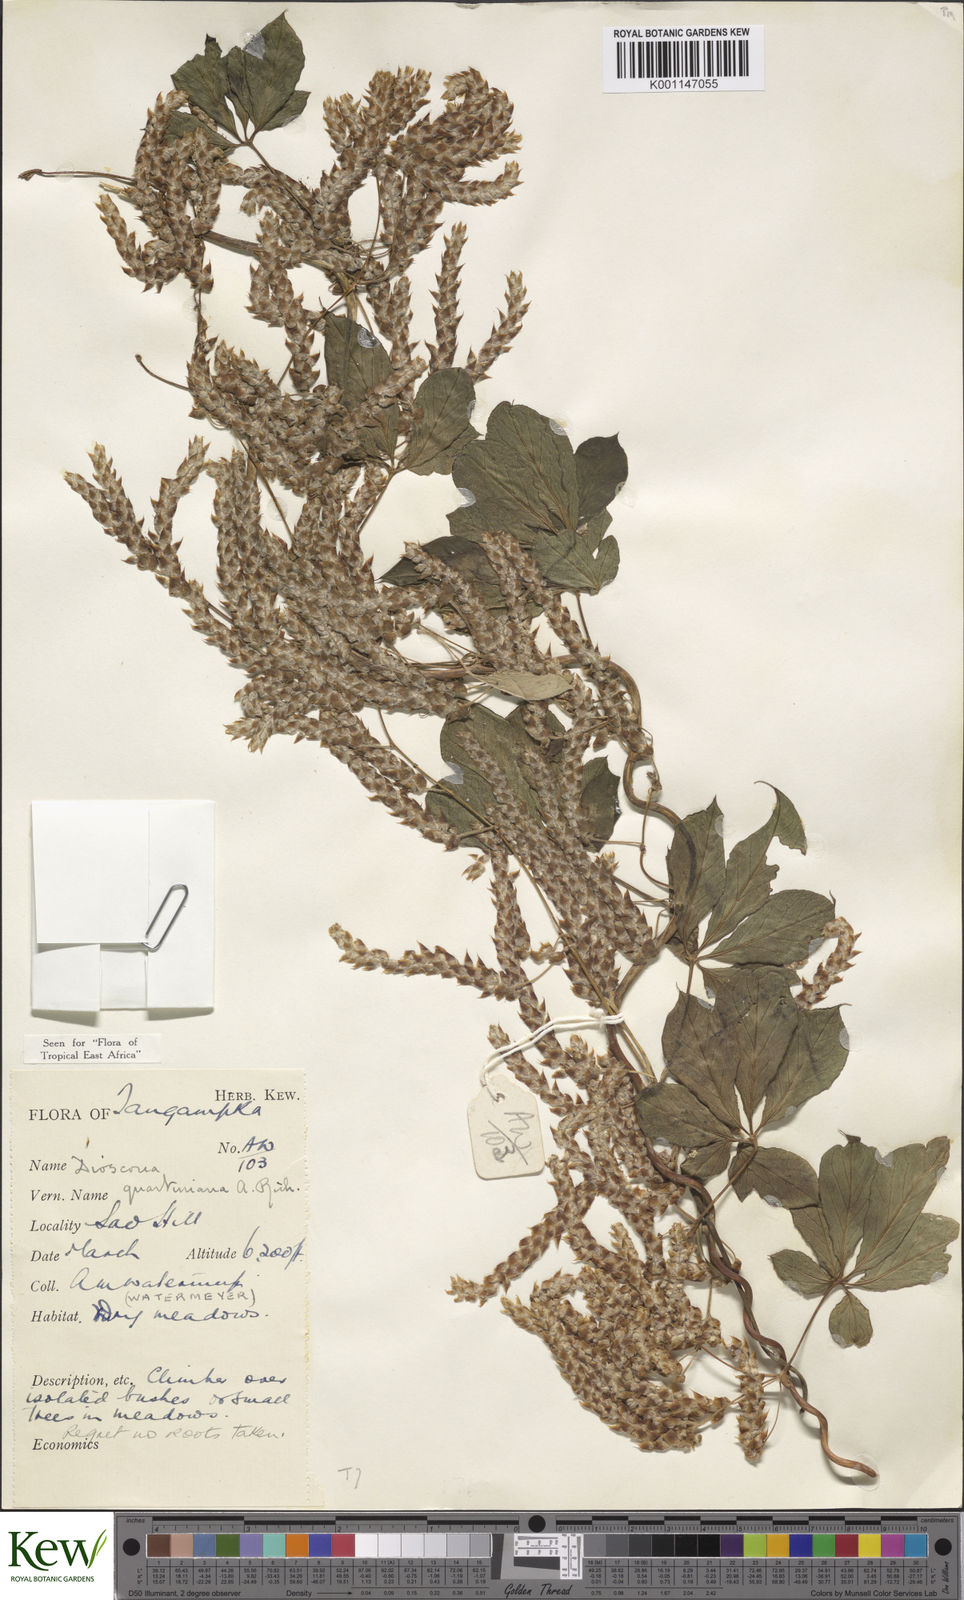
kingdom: Plantae
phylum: Tracheophyta
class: Liliopsida
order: Dioscoreales
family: Dioscoreaceae
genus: Dioscorea
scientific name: Dioscorea quartiniana
